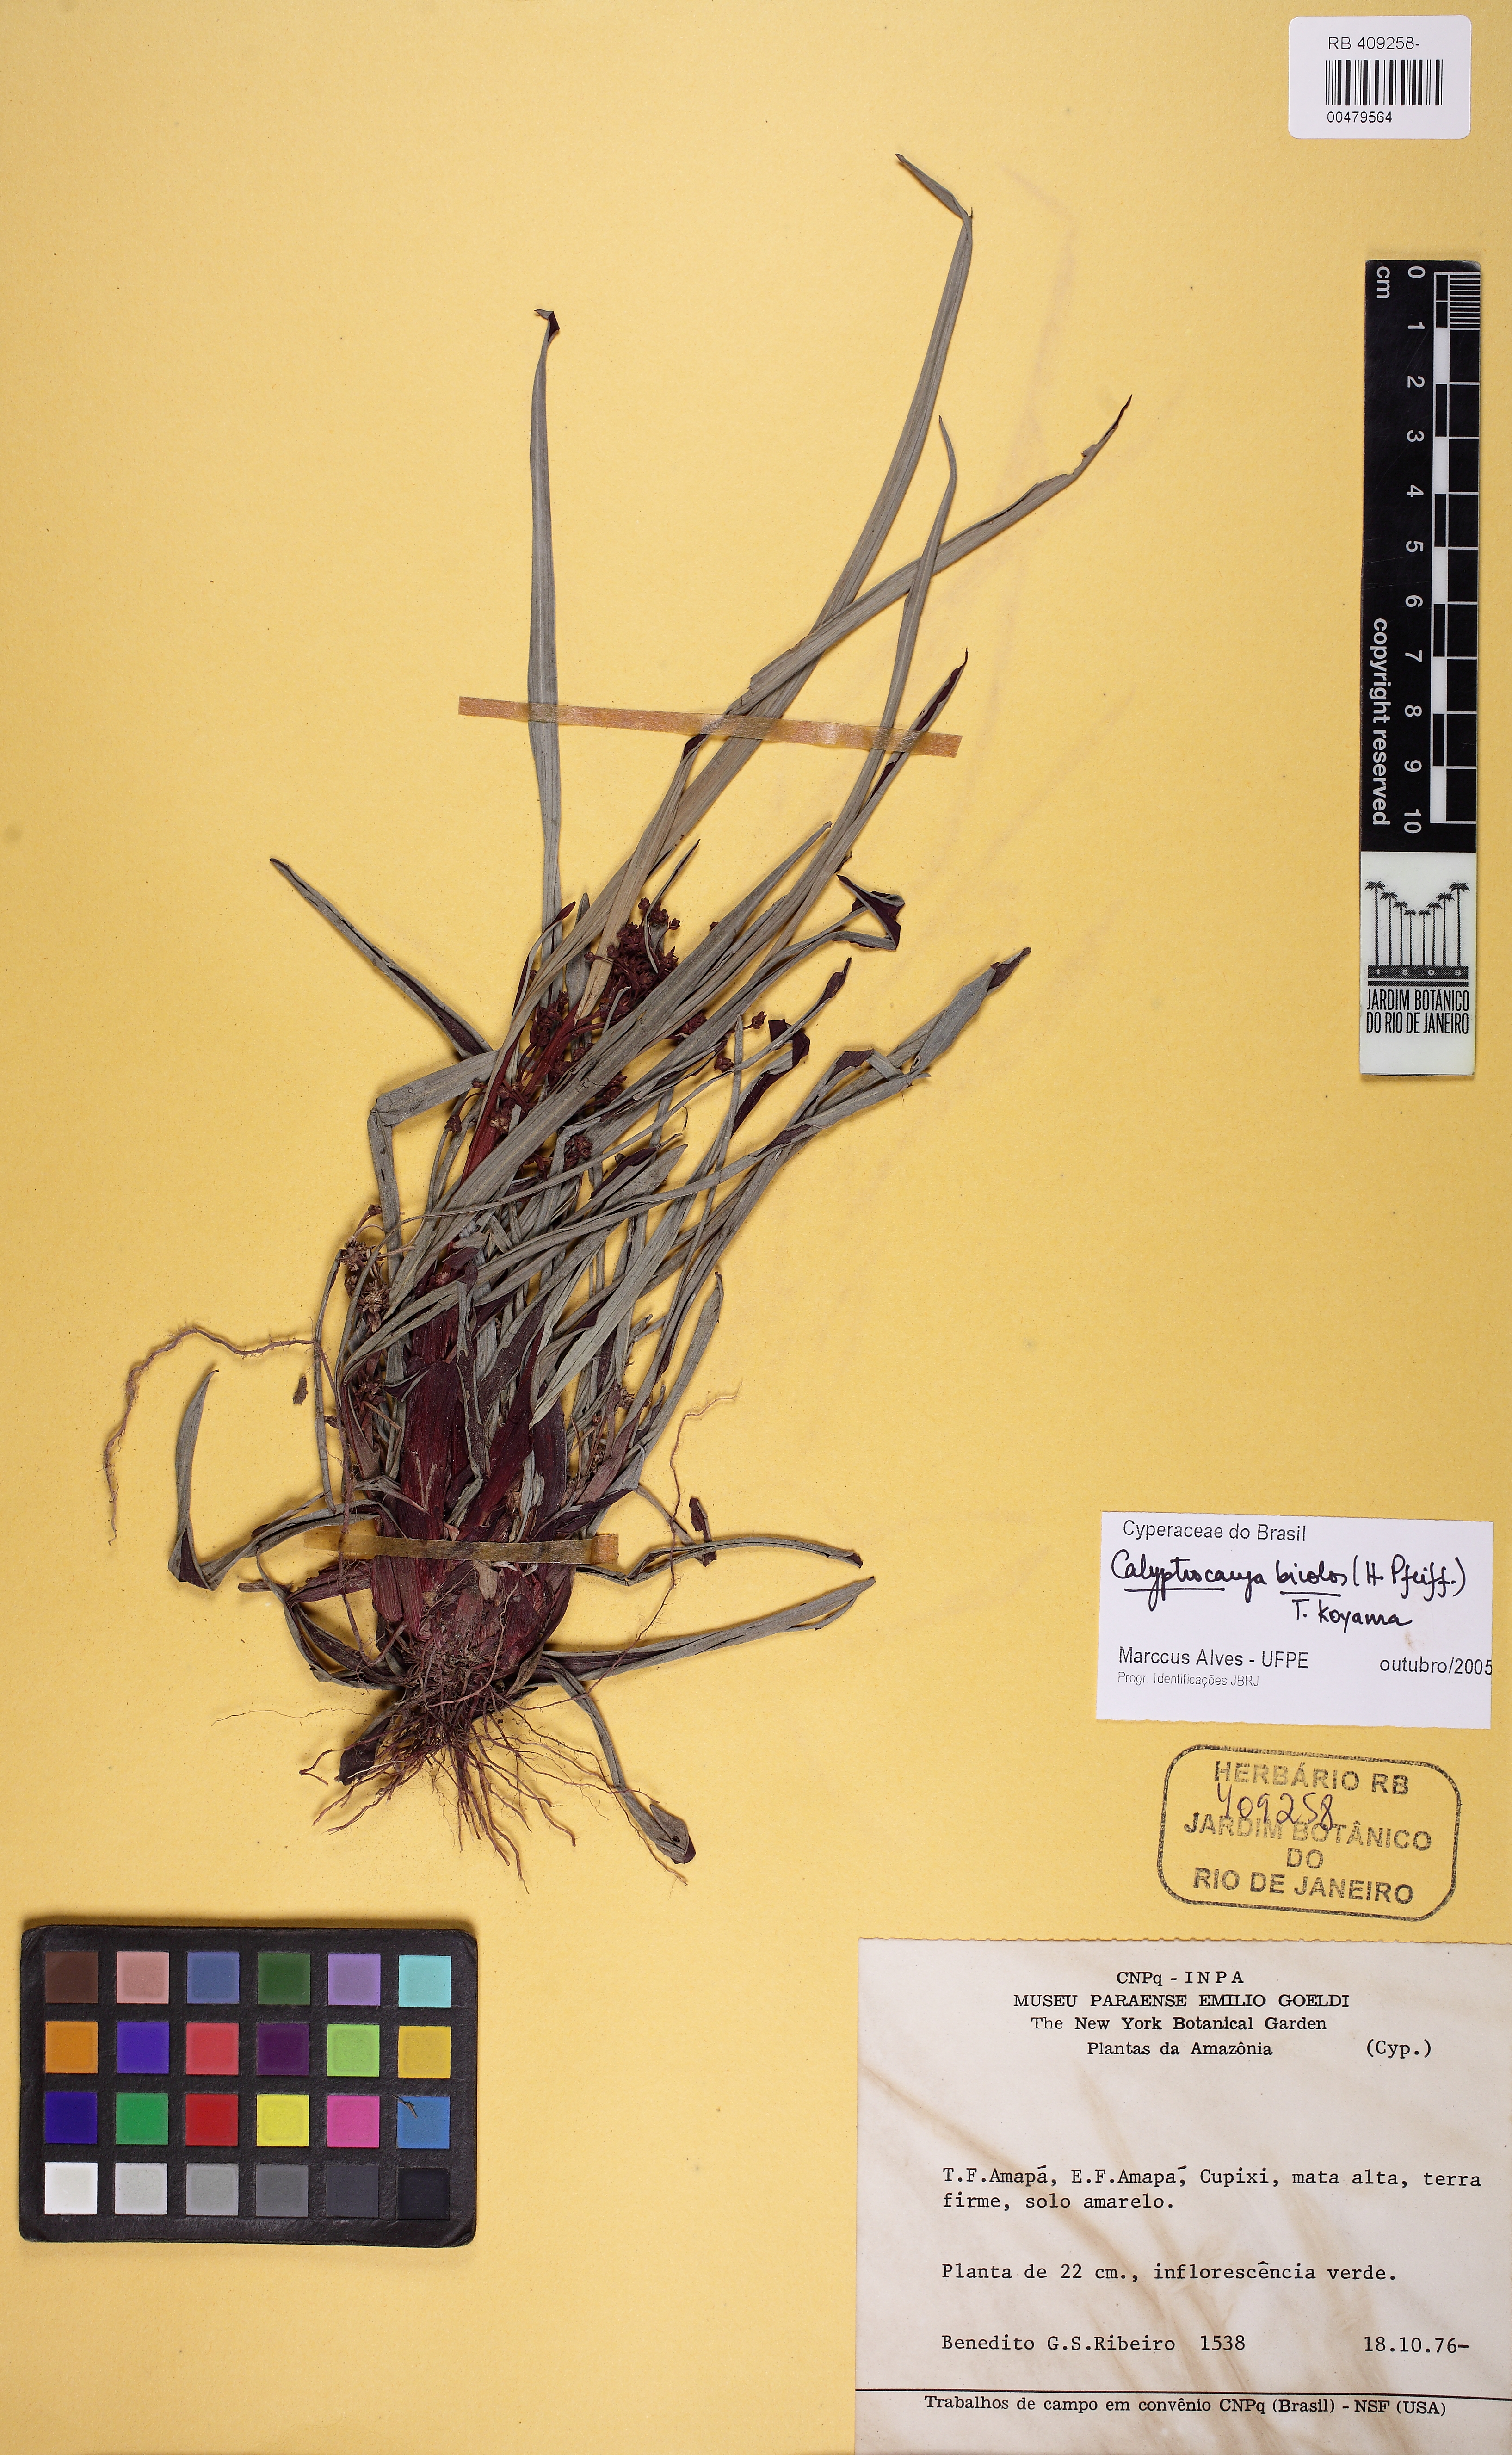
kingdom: Plantae
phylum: Tracheophyta
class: Liliopsida
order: Poales
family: Cyperaceae
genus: Calyptrocarya
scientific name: Calyptrocarya bicolor
